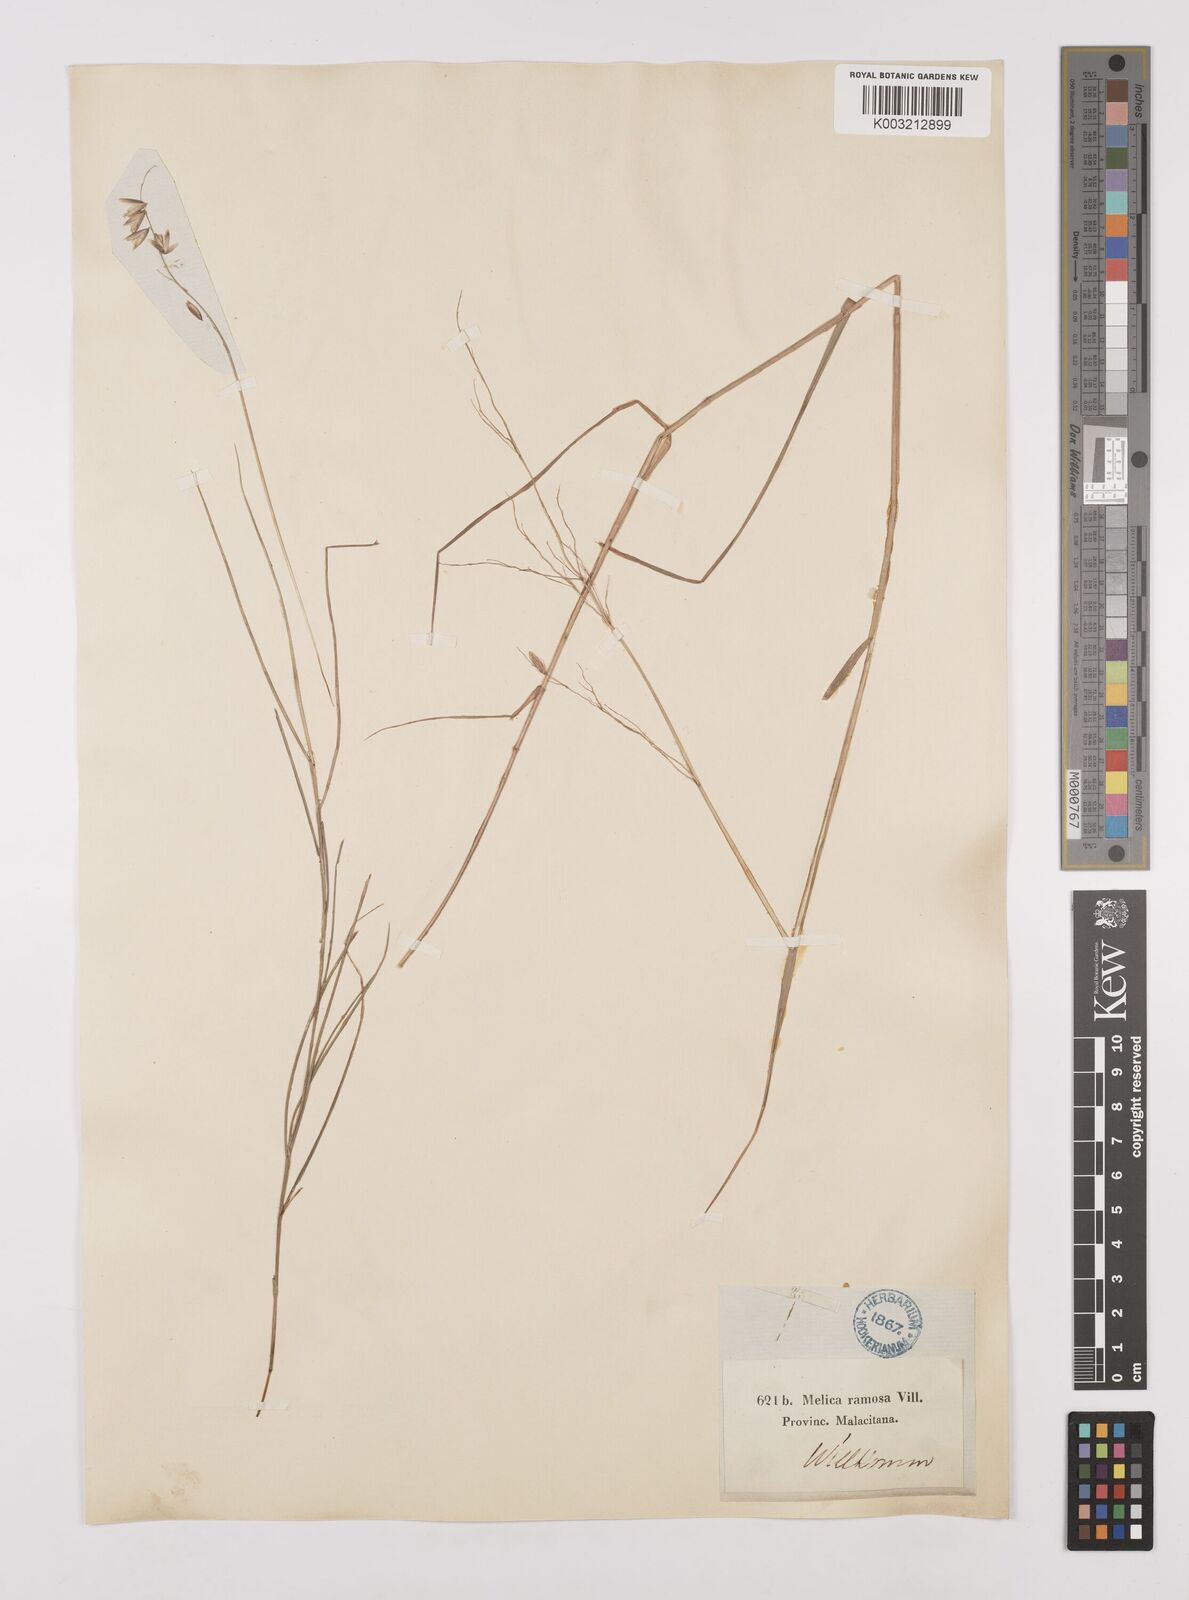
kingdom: Plantae
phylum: Tracheophyta
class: Liliopsida
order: Poales
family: Poaceae
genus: Melica
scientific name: Melica minuta
